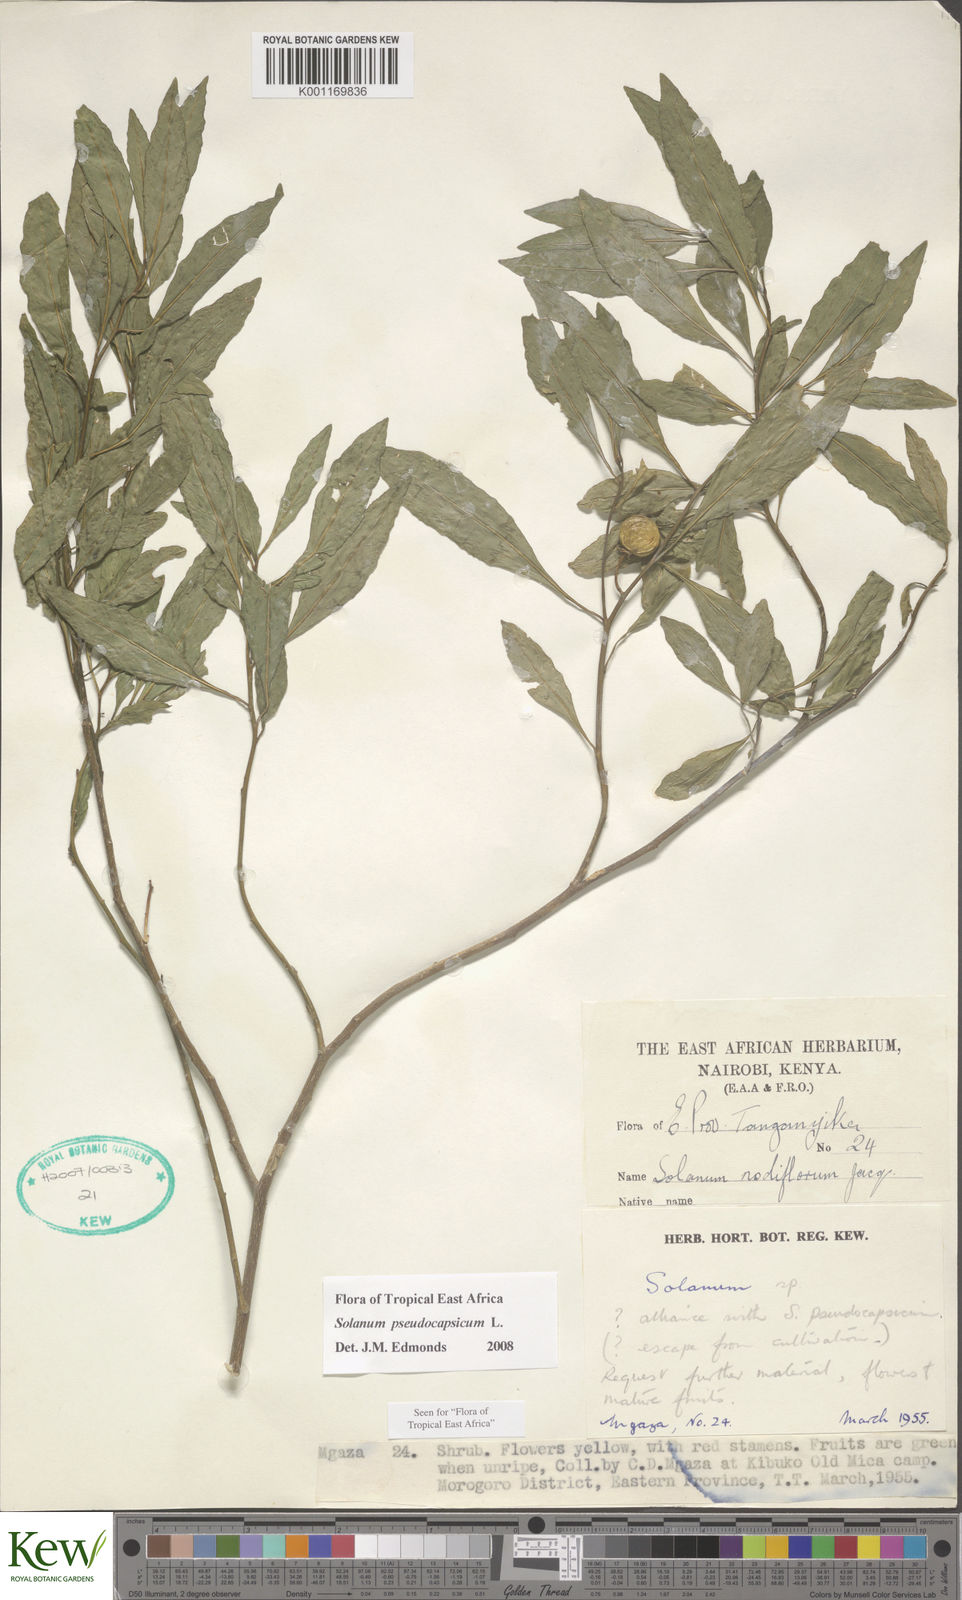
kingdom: Plantae
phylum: Tracheophyta
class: Magnoliopsida
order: Solanales
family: Solanaceae
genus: Solanum
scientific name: Solanum pseudocapsicum
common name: Jerusalem cherry
